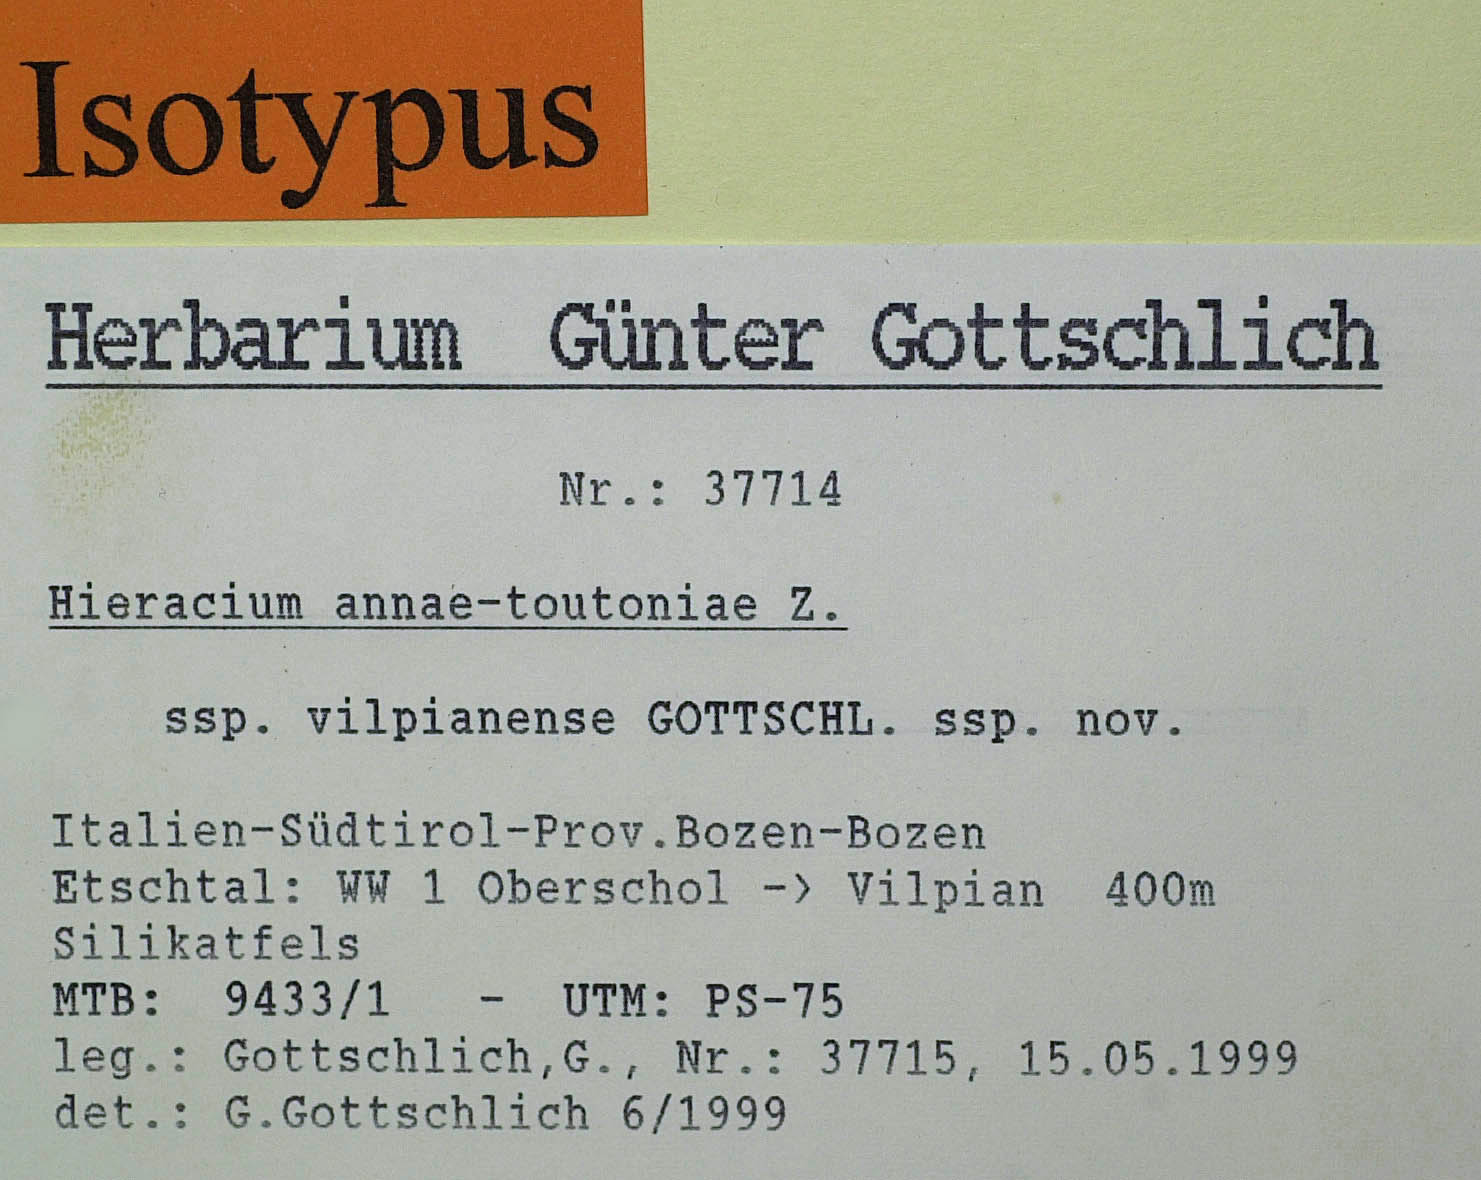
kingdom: Plantae
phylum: Tracheophyta
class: Magnoliopsida
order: Asterales
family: Asteraceae
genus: Hieracium
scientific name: Hieracium annae-toutoniae
